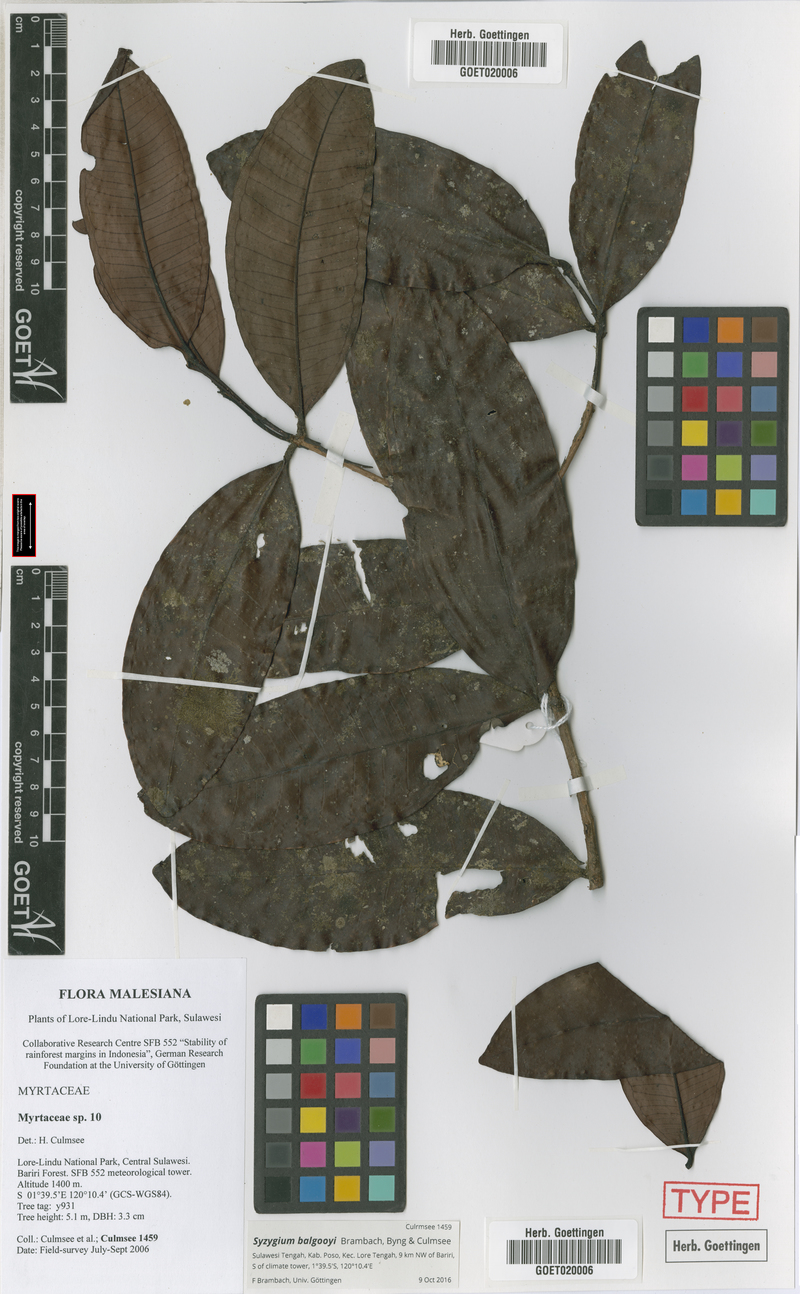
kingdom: Plantae
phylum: Tracheophyta
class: Magnoliopsida
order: Myrtales
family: Myrtaceae
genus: Syzygium
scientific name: Syzygium balgooyi
